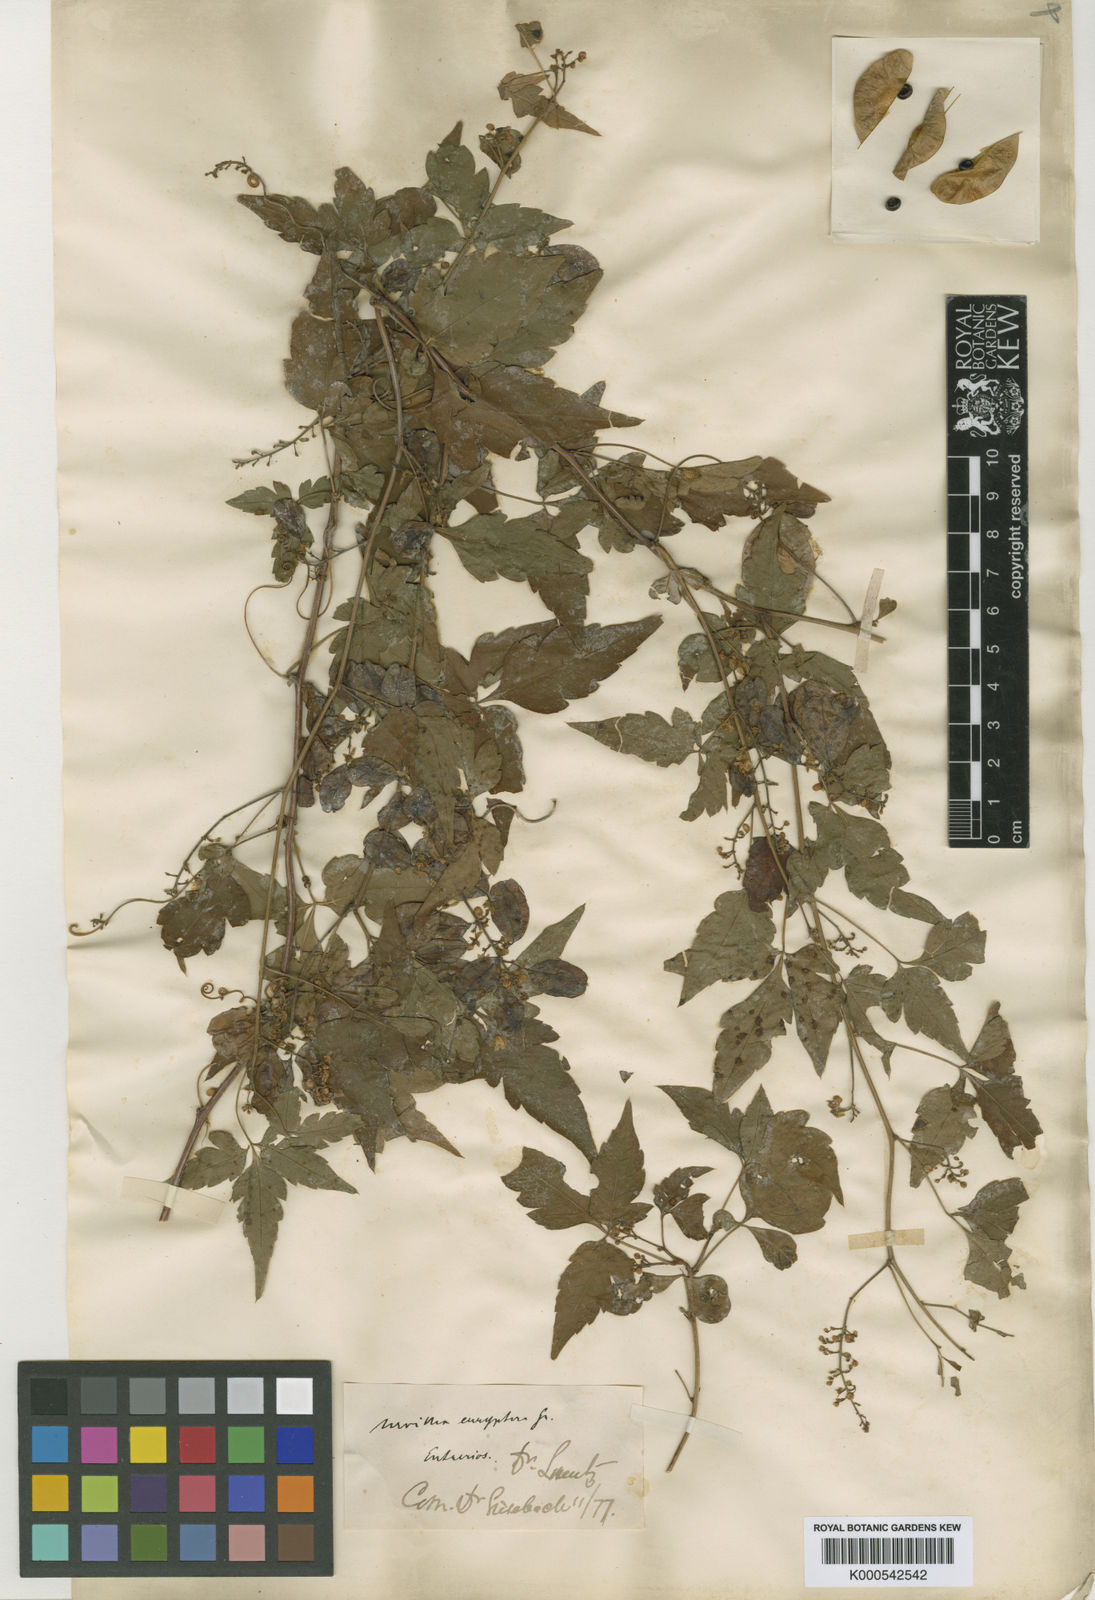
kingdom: Plantae
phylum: Tracheophyta
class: Magnoliopsida
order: Sapindales
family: Sapindaceae
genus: Urvillea
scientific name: Urvillea uniloba
